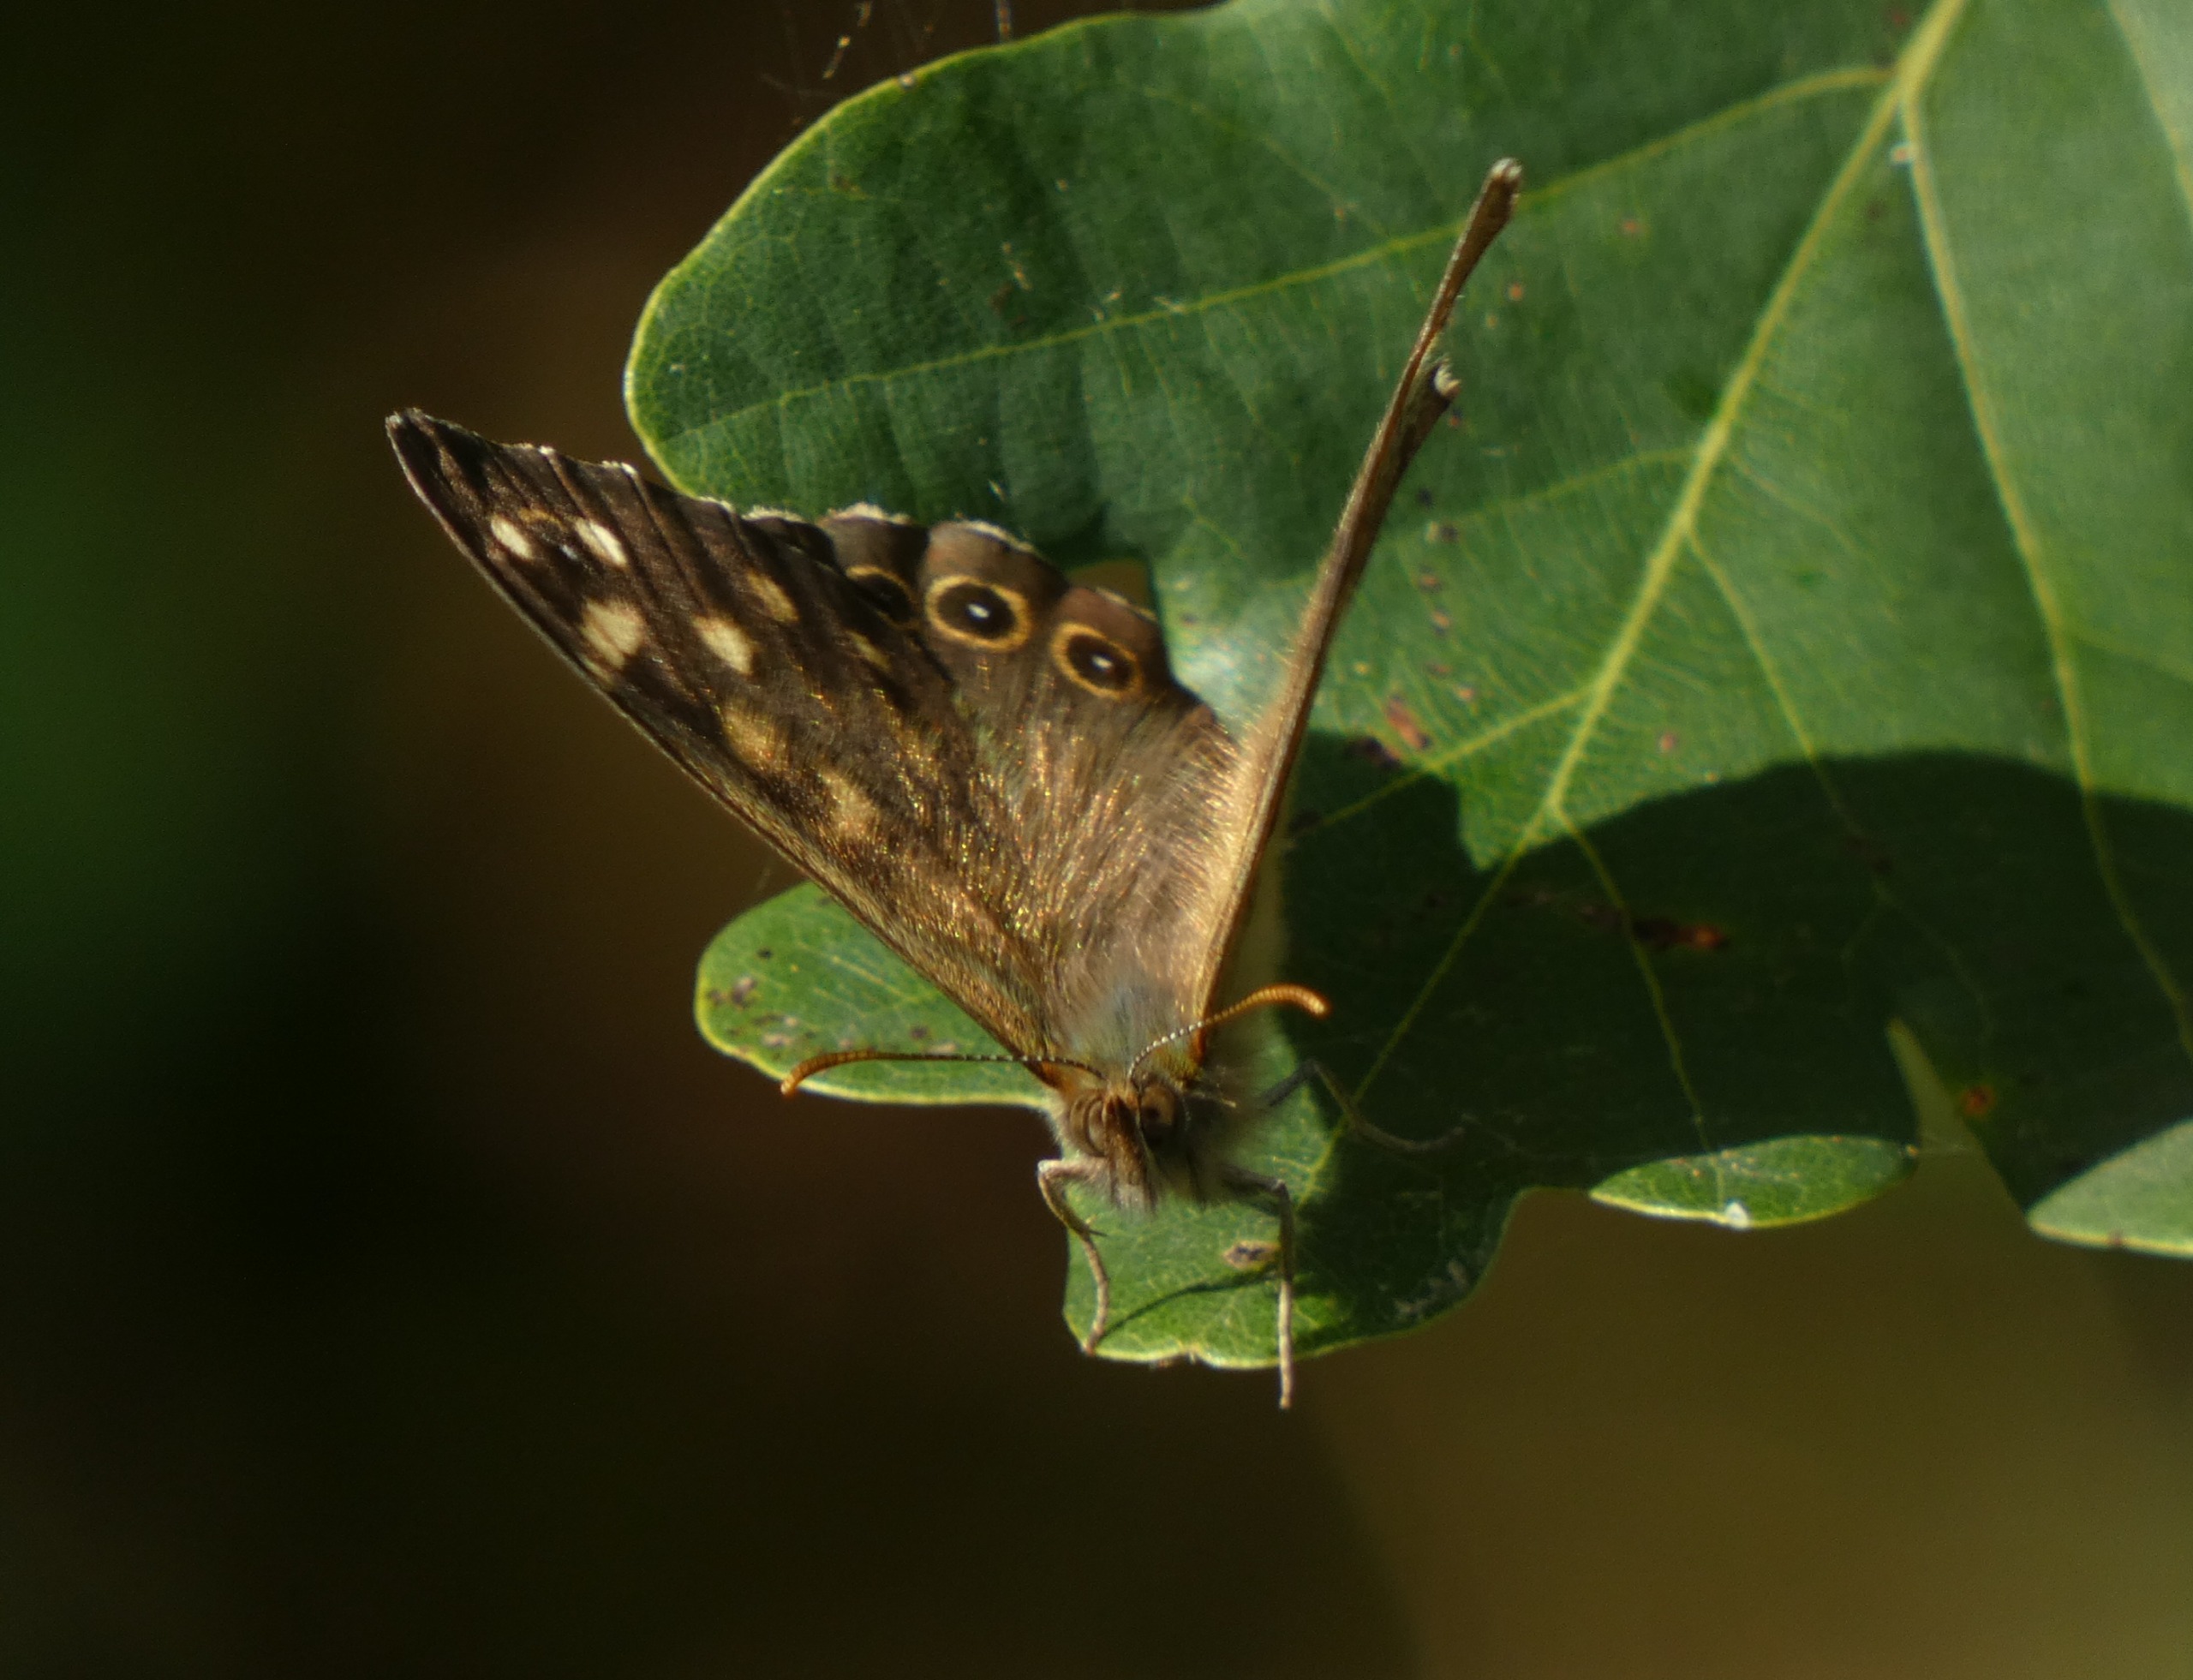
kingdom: Animalia
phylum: Arthropoda
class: Insecta
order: Lepidoptera
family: Nymphalidae
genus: Pararge
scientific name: Pararge aegeria
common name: Skovrandøje
